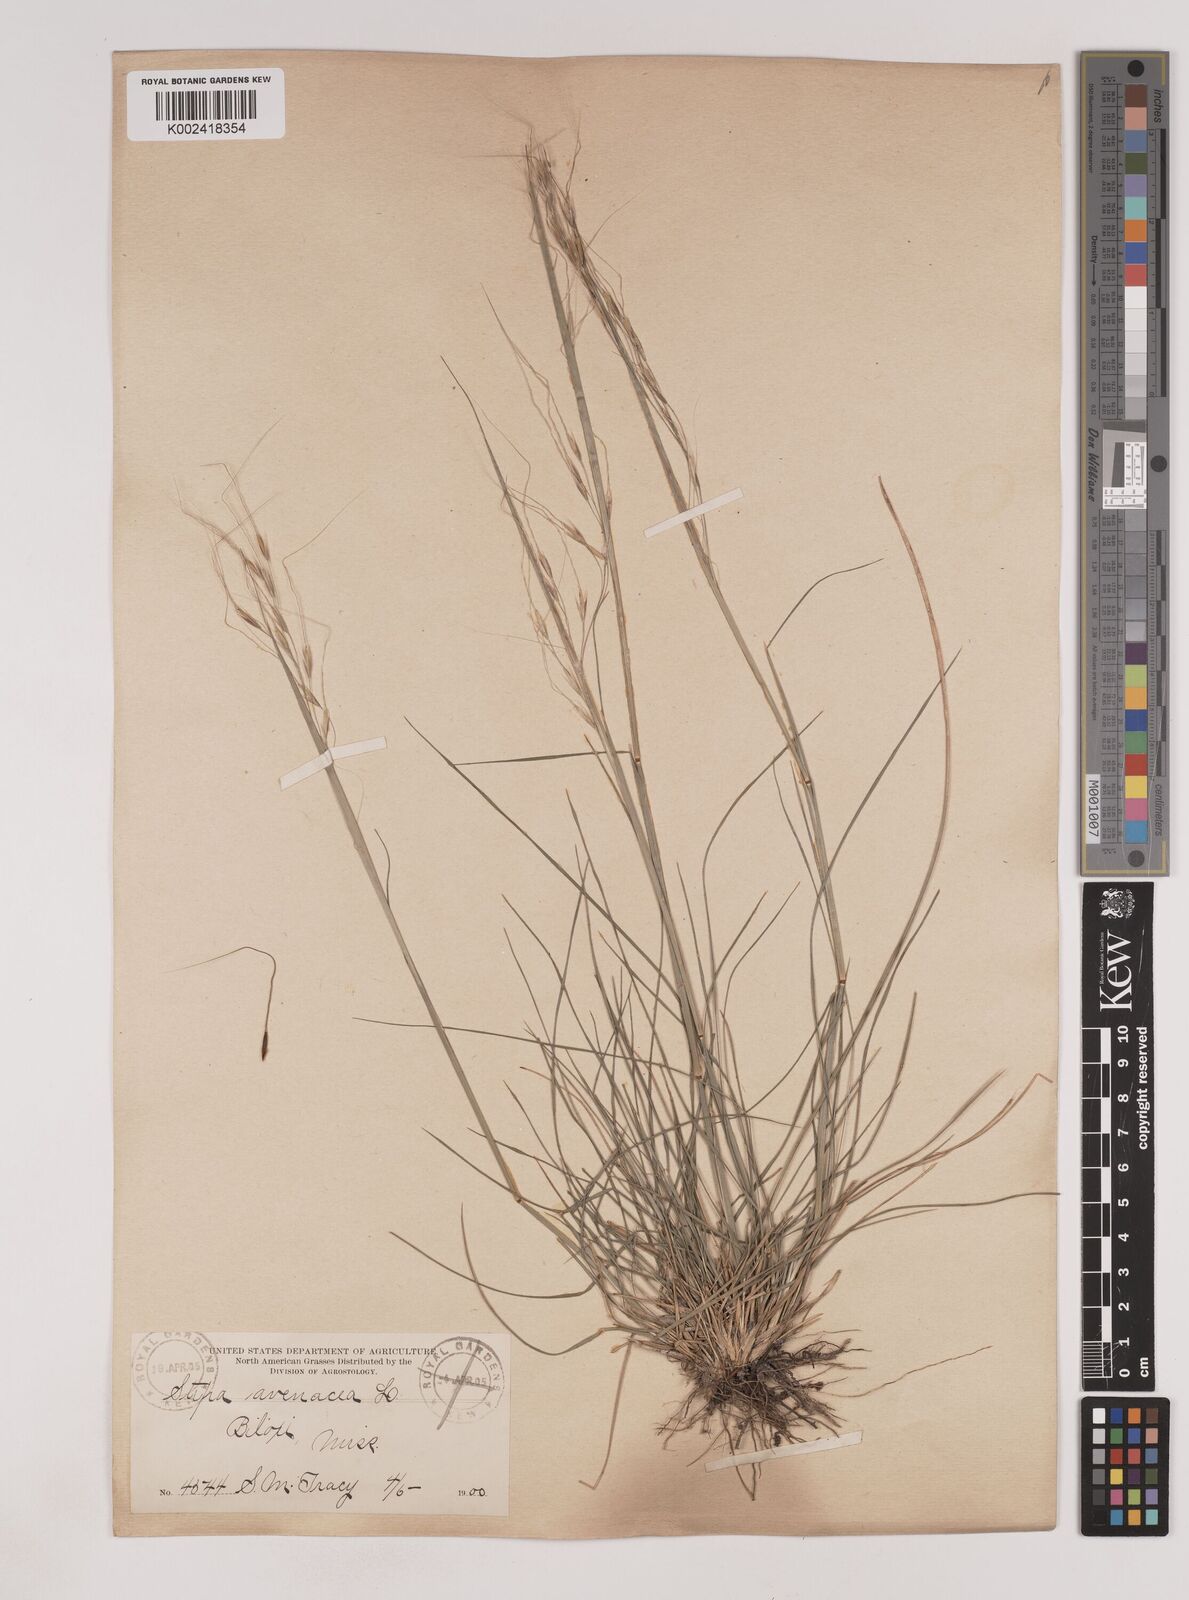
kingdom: Plantae
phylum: Tracheophyta
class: Liliopsida
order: Poales
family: Poaceae
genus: Piptochaetium
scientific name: Piptochaetium avenaceum
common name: Black bunchgrass
